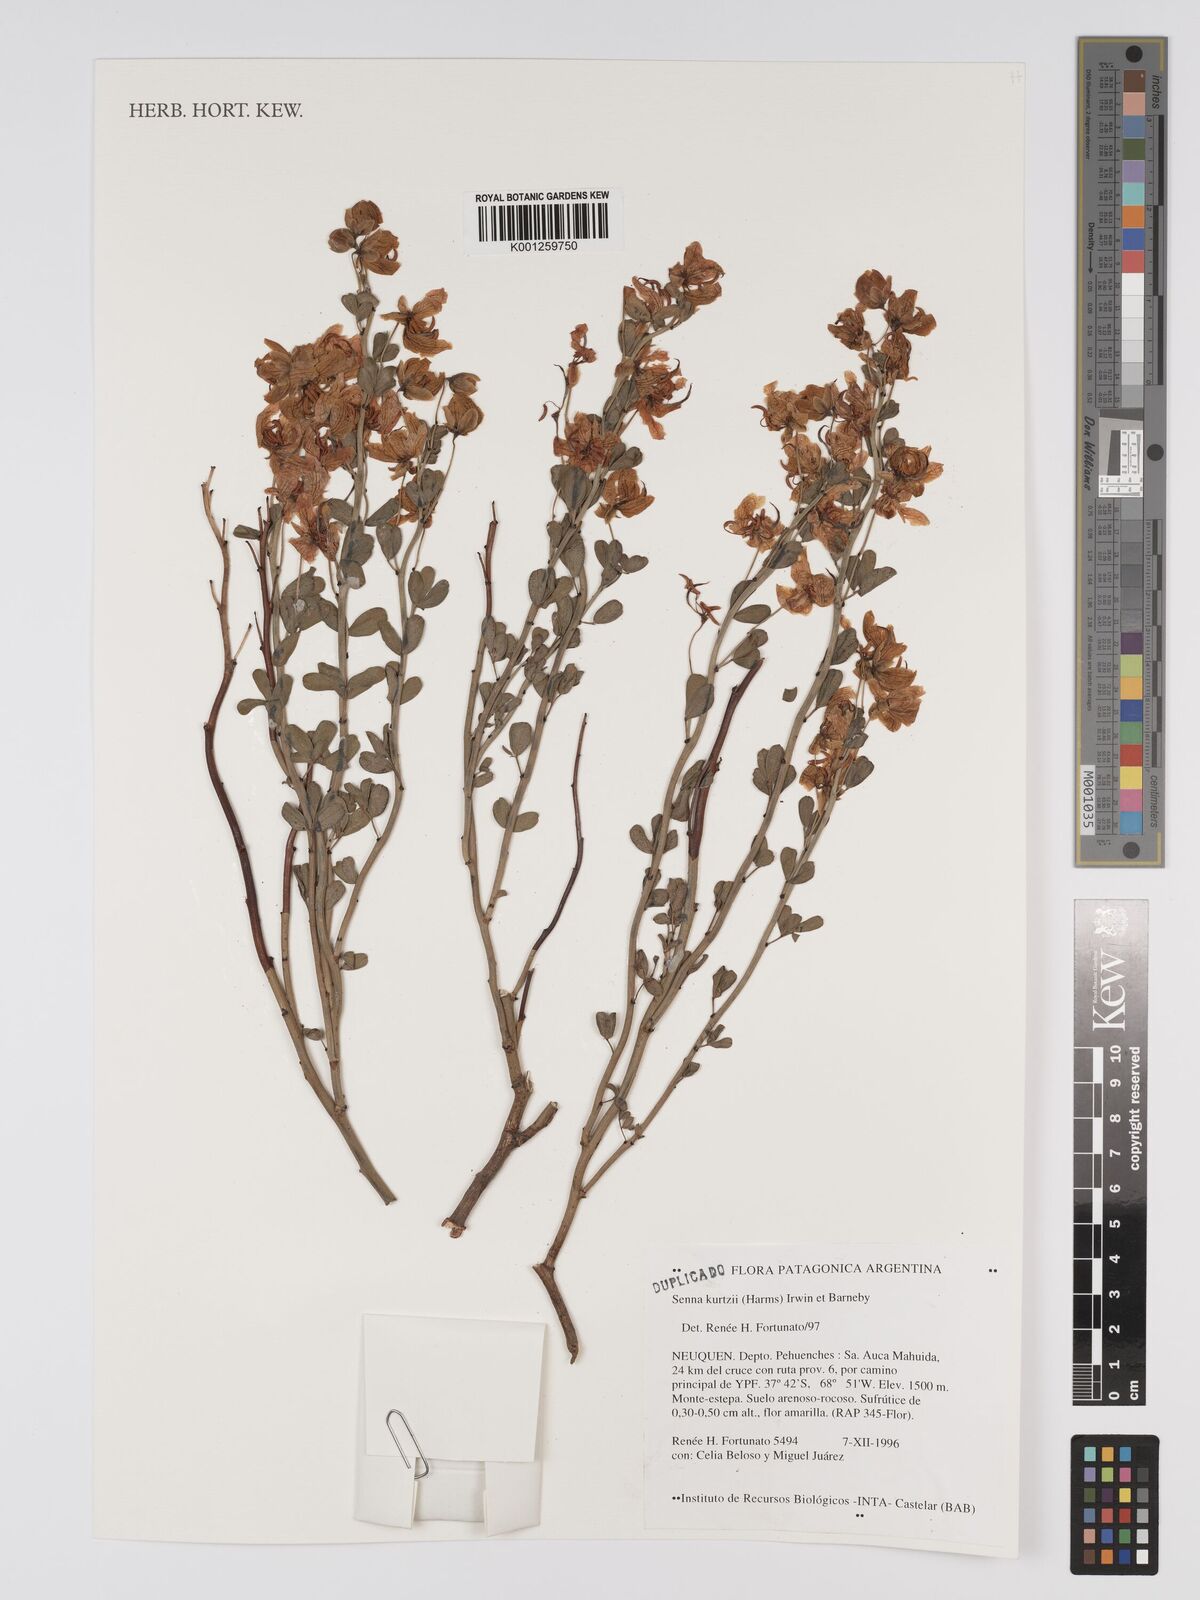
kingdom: Plantae
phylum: Tracheophyta
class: Magnoliopsida
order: Fabales
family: Fabaceae
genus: Senna
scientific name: Senna kurtzii
